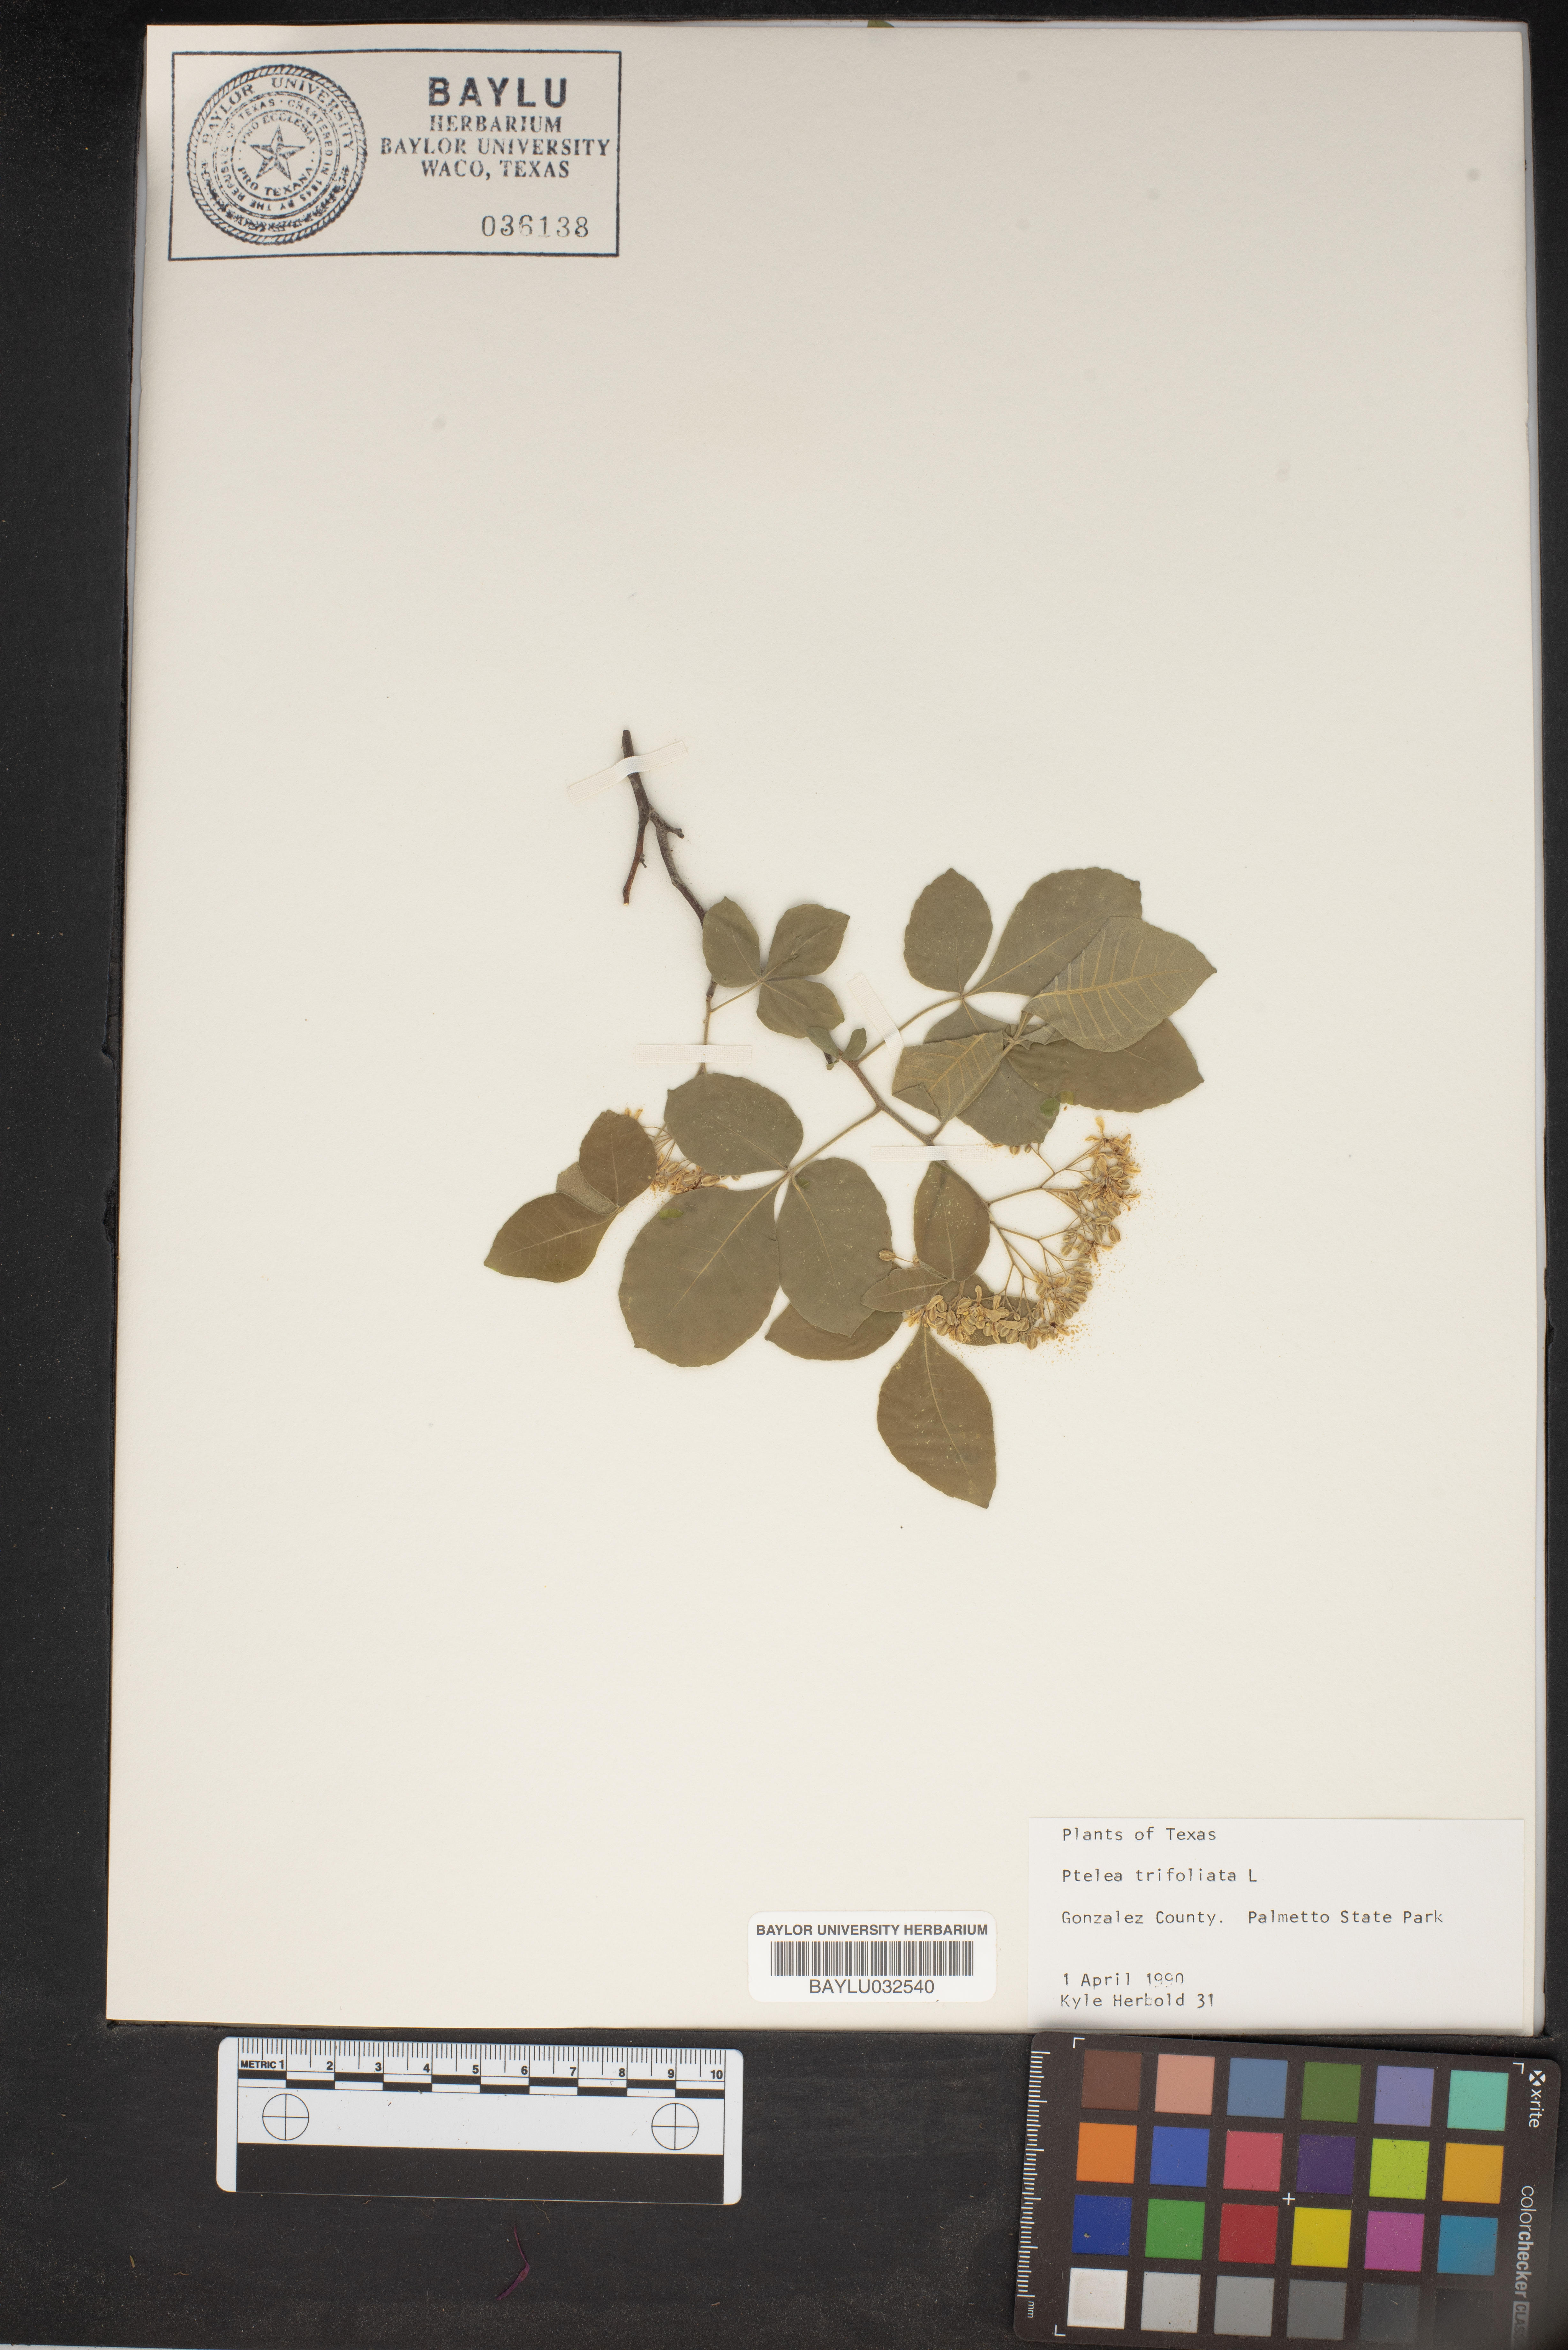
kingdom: Plantae
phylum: Tracheophyta
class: Magnoliopsida
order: Sapindales
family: Rutaceae
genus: Ptelea
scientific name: Ptelea trifoliata
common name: Common hop-tree
